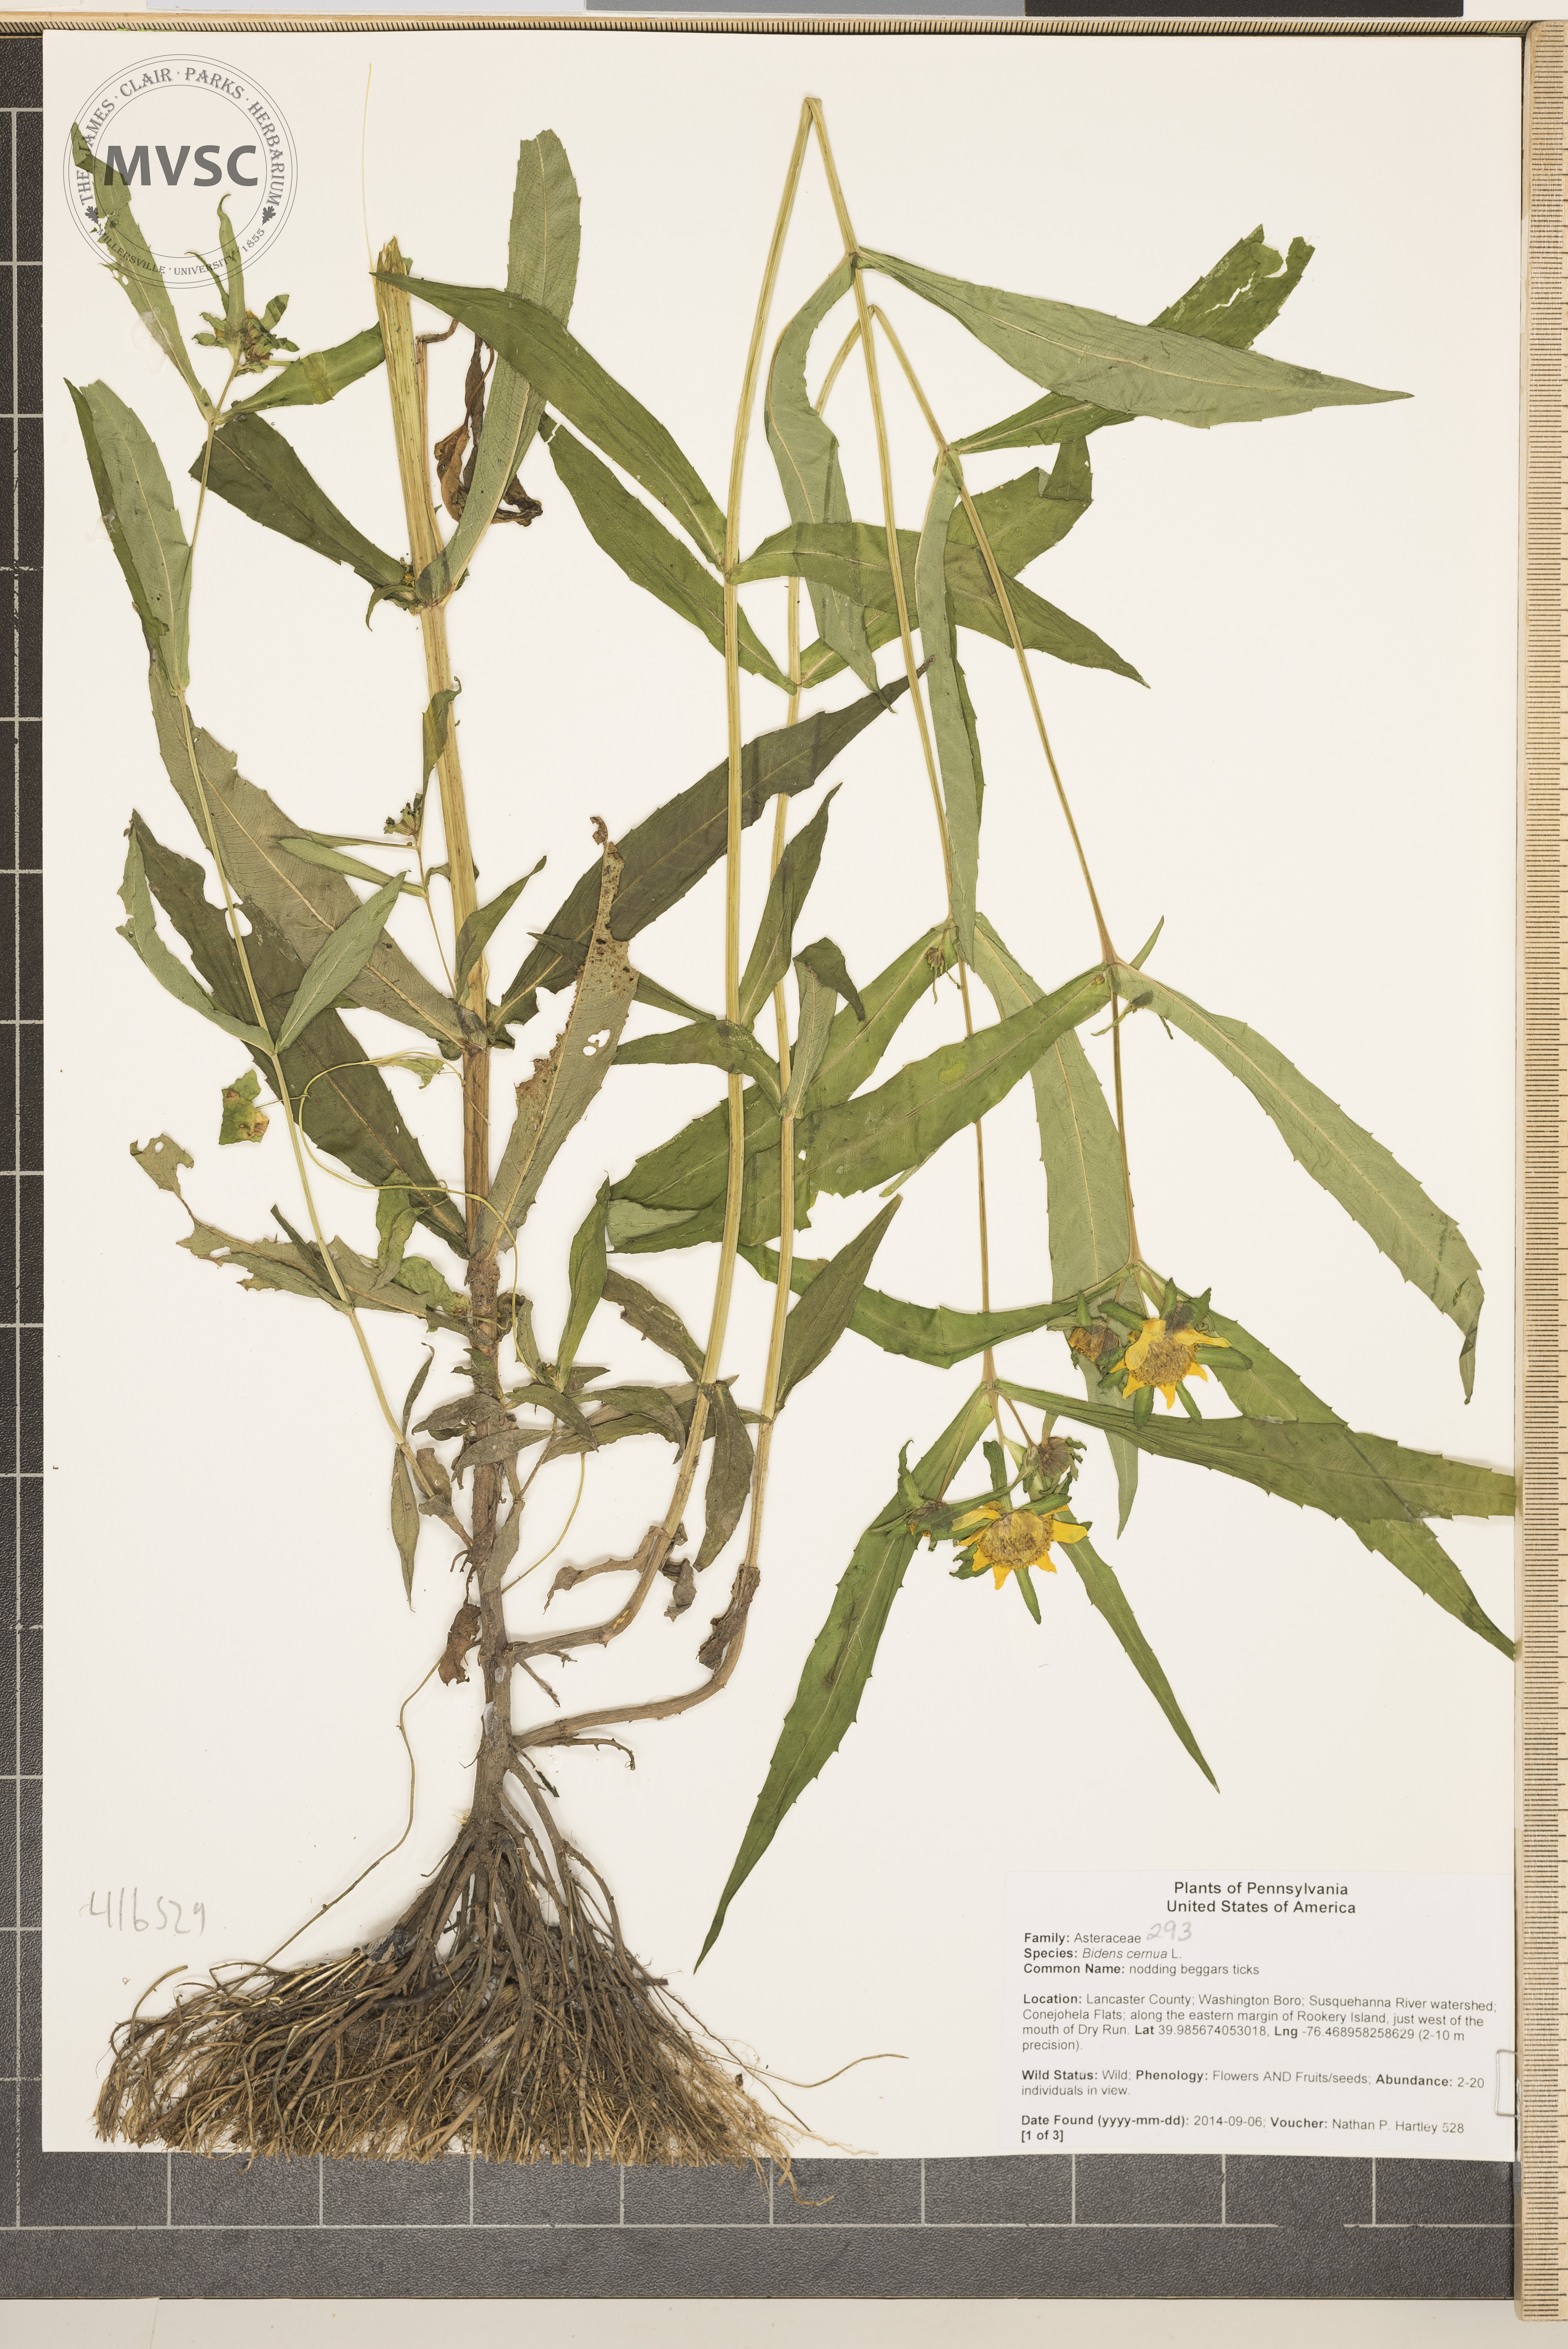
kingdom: Plantae
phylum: Tracheophyta
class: Magnoliopsida
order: Asterales
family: Asteraceae
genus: Bidens
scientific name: Bidens cernua
